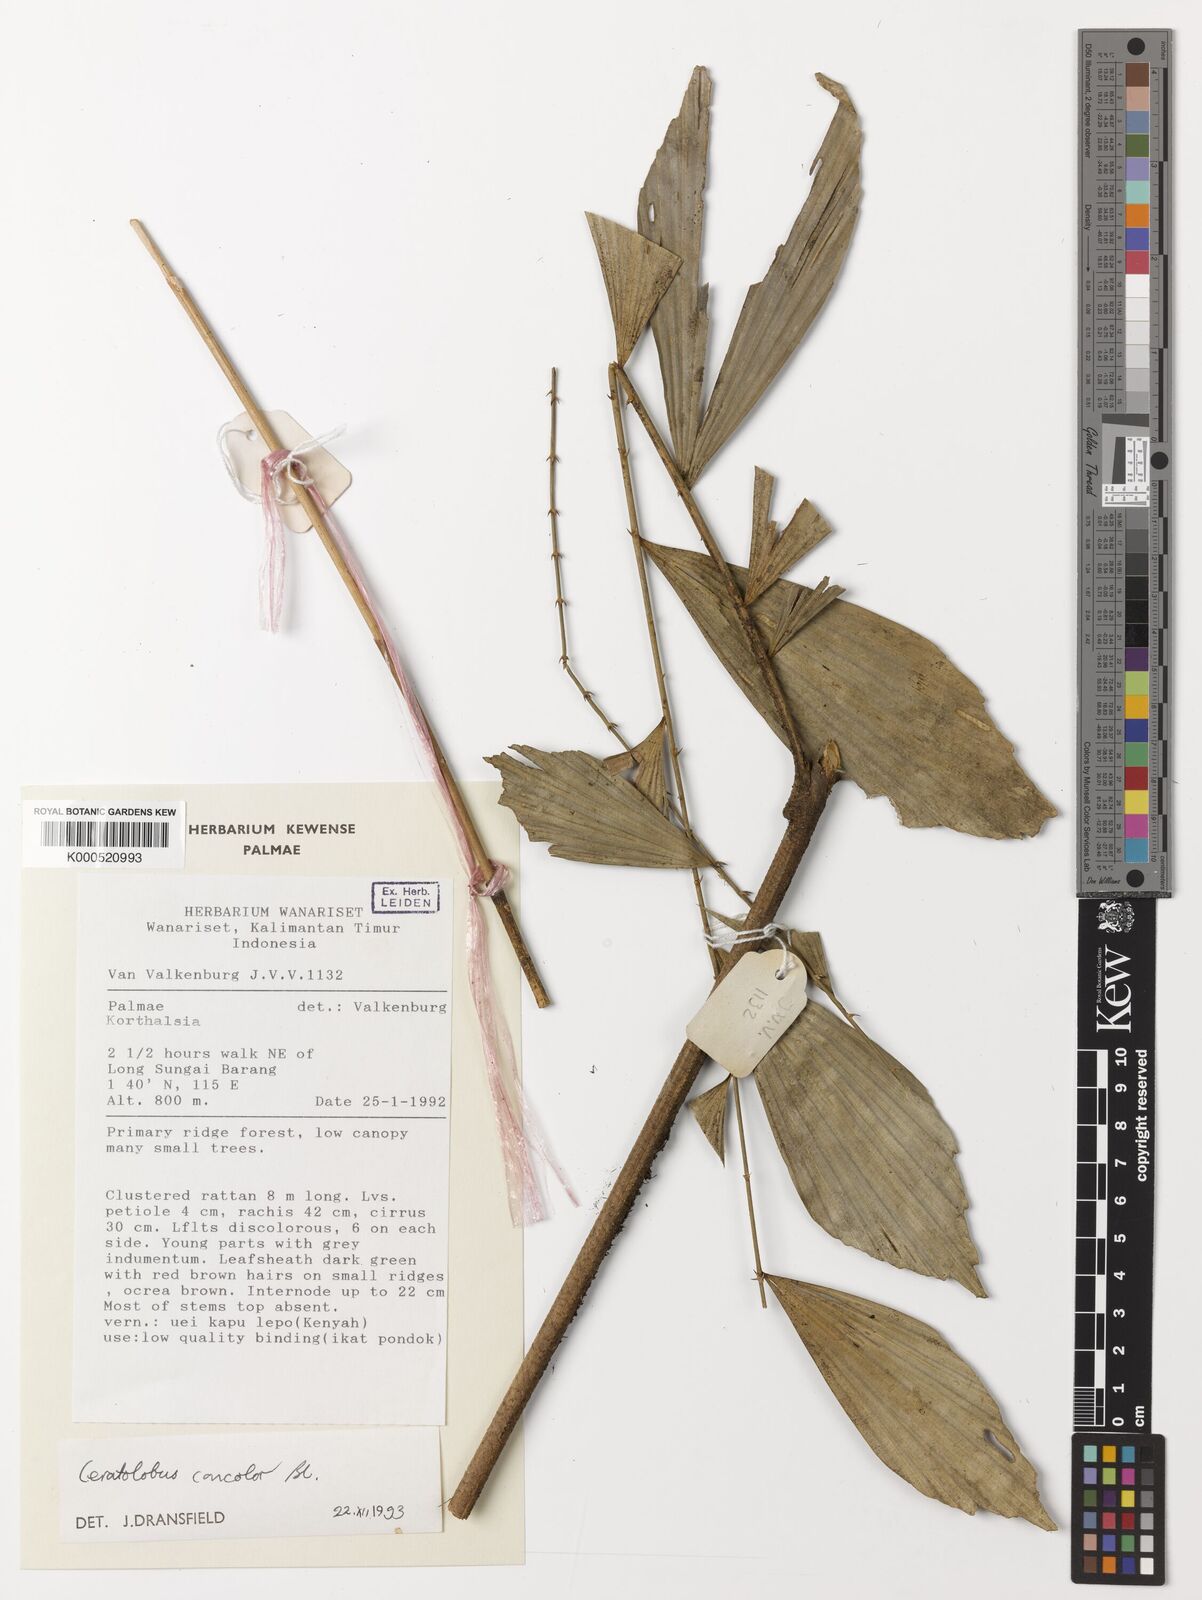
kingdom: Plantae
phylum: Tracheophyta
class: Liliopsida
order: Arecales
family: Arecaceae
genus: Calamus
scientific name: Calamus concolor
